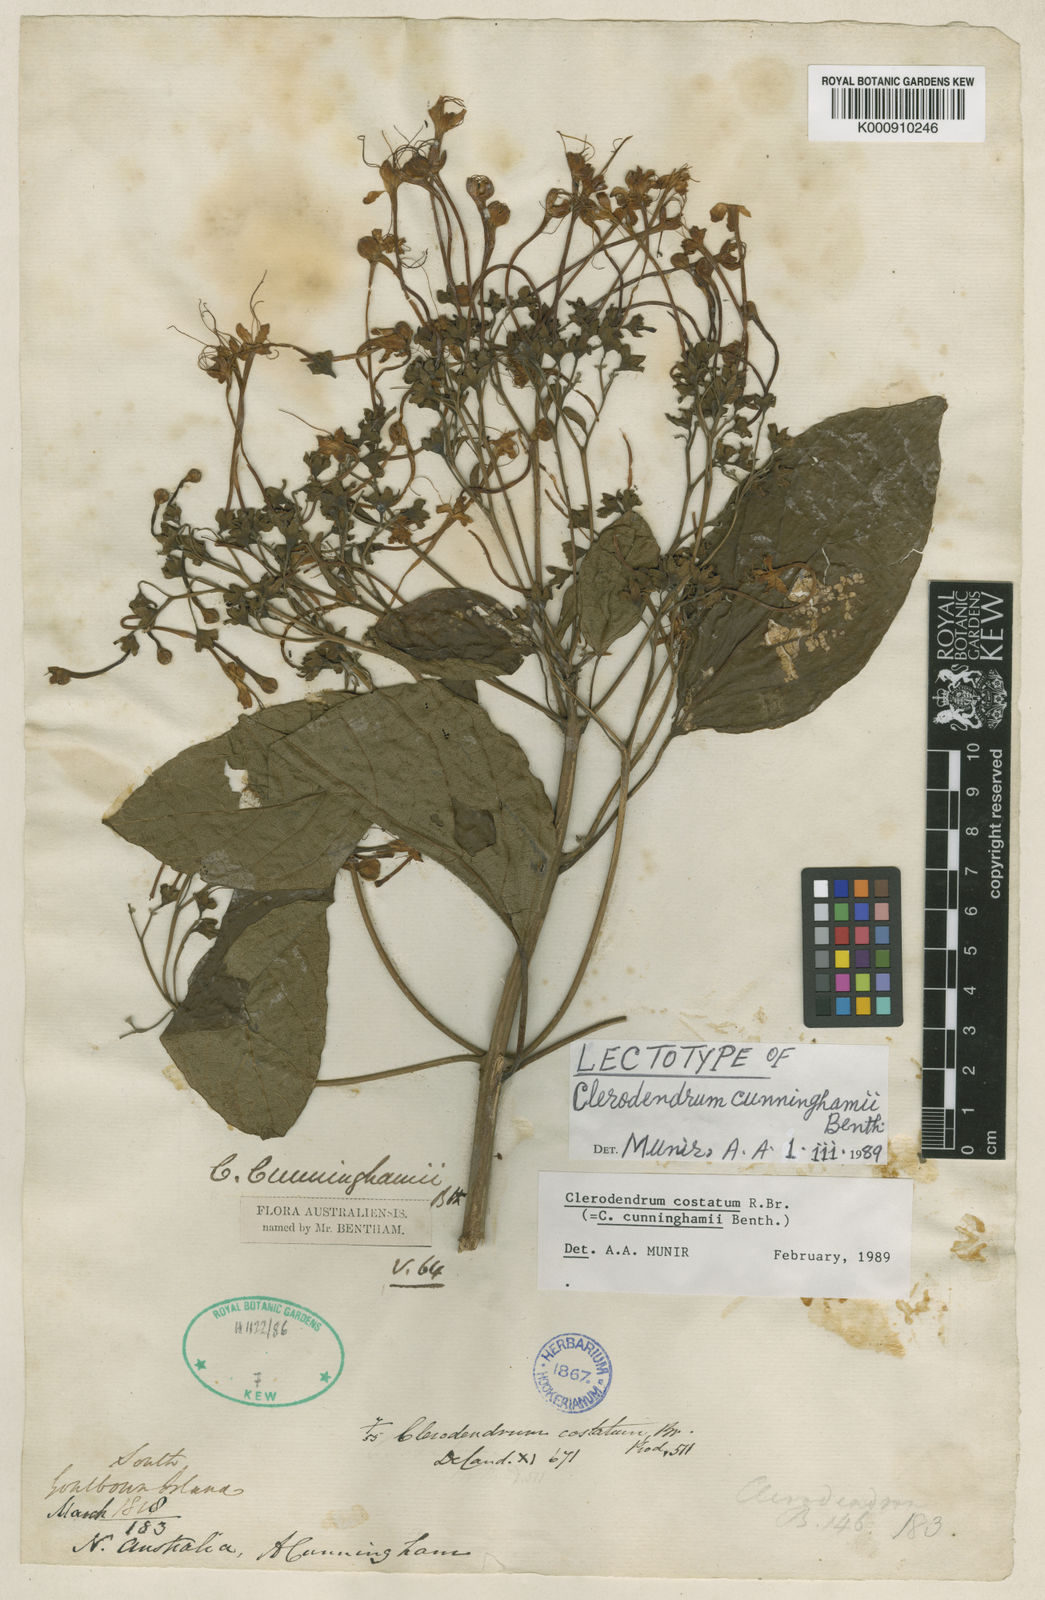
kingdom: Plantae
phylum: Tracheophyta
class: Magnoliopsida
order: Lamiales
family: Lamiaceae
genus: Clerodendrum
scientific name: Clerodendrum costatum
